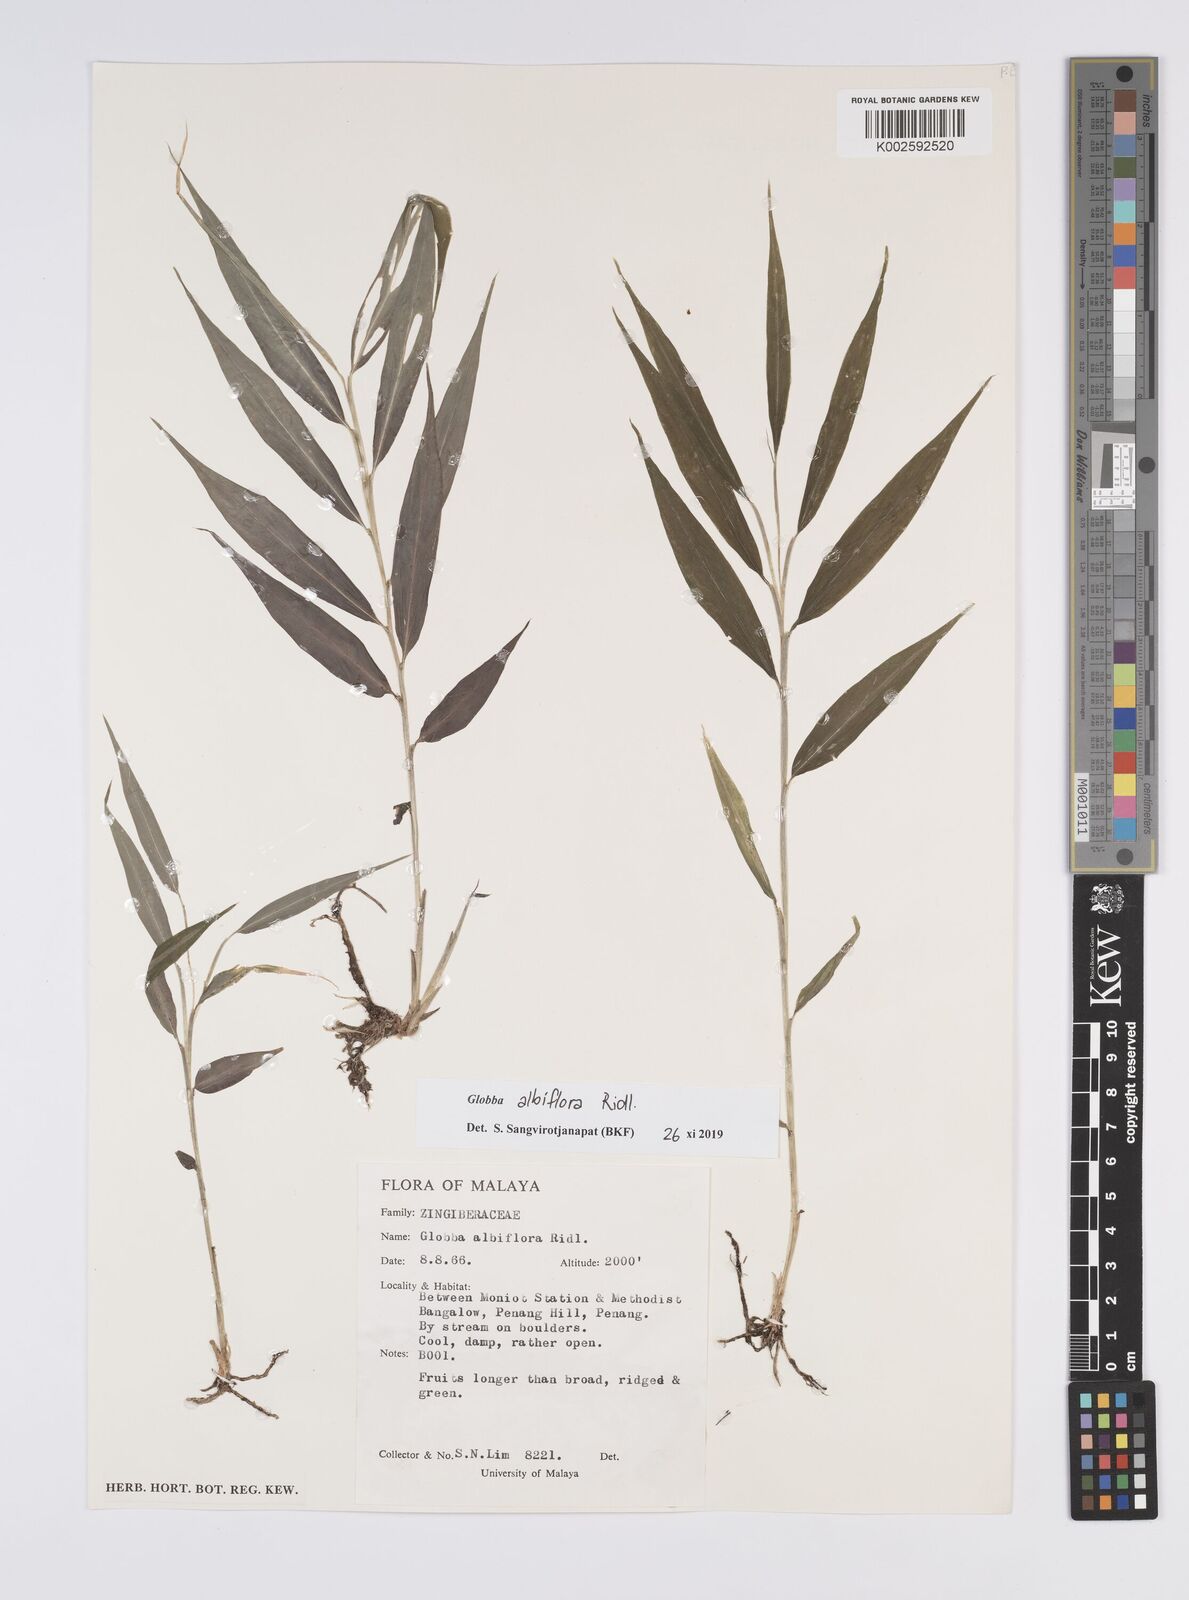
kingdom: Plantae
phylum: Tracheophyta
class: Liliopsida
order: Zingiberales
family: Zingiberaceae
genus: Globba
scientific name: Globba albiflora
